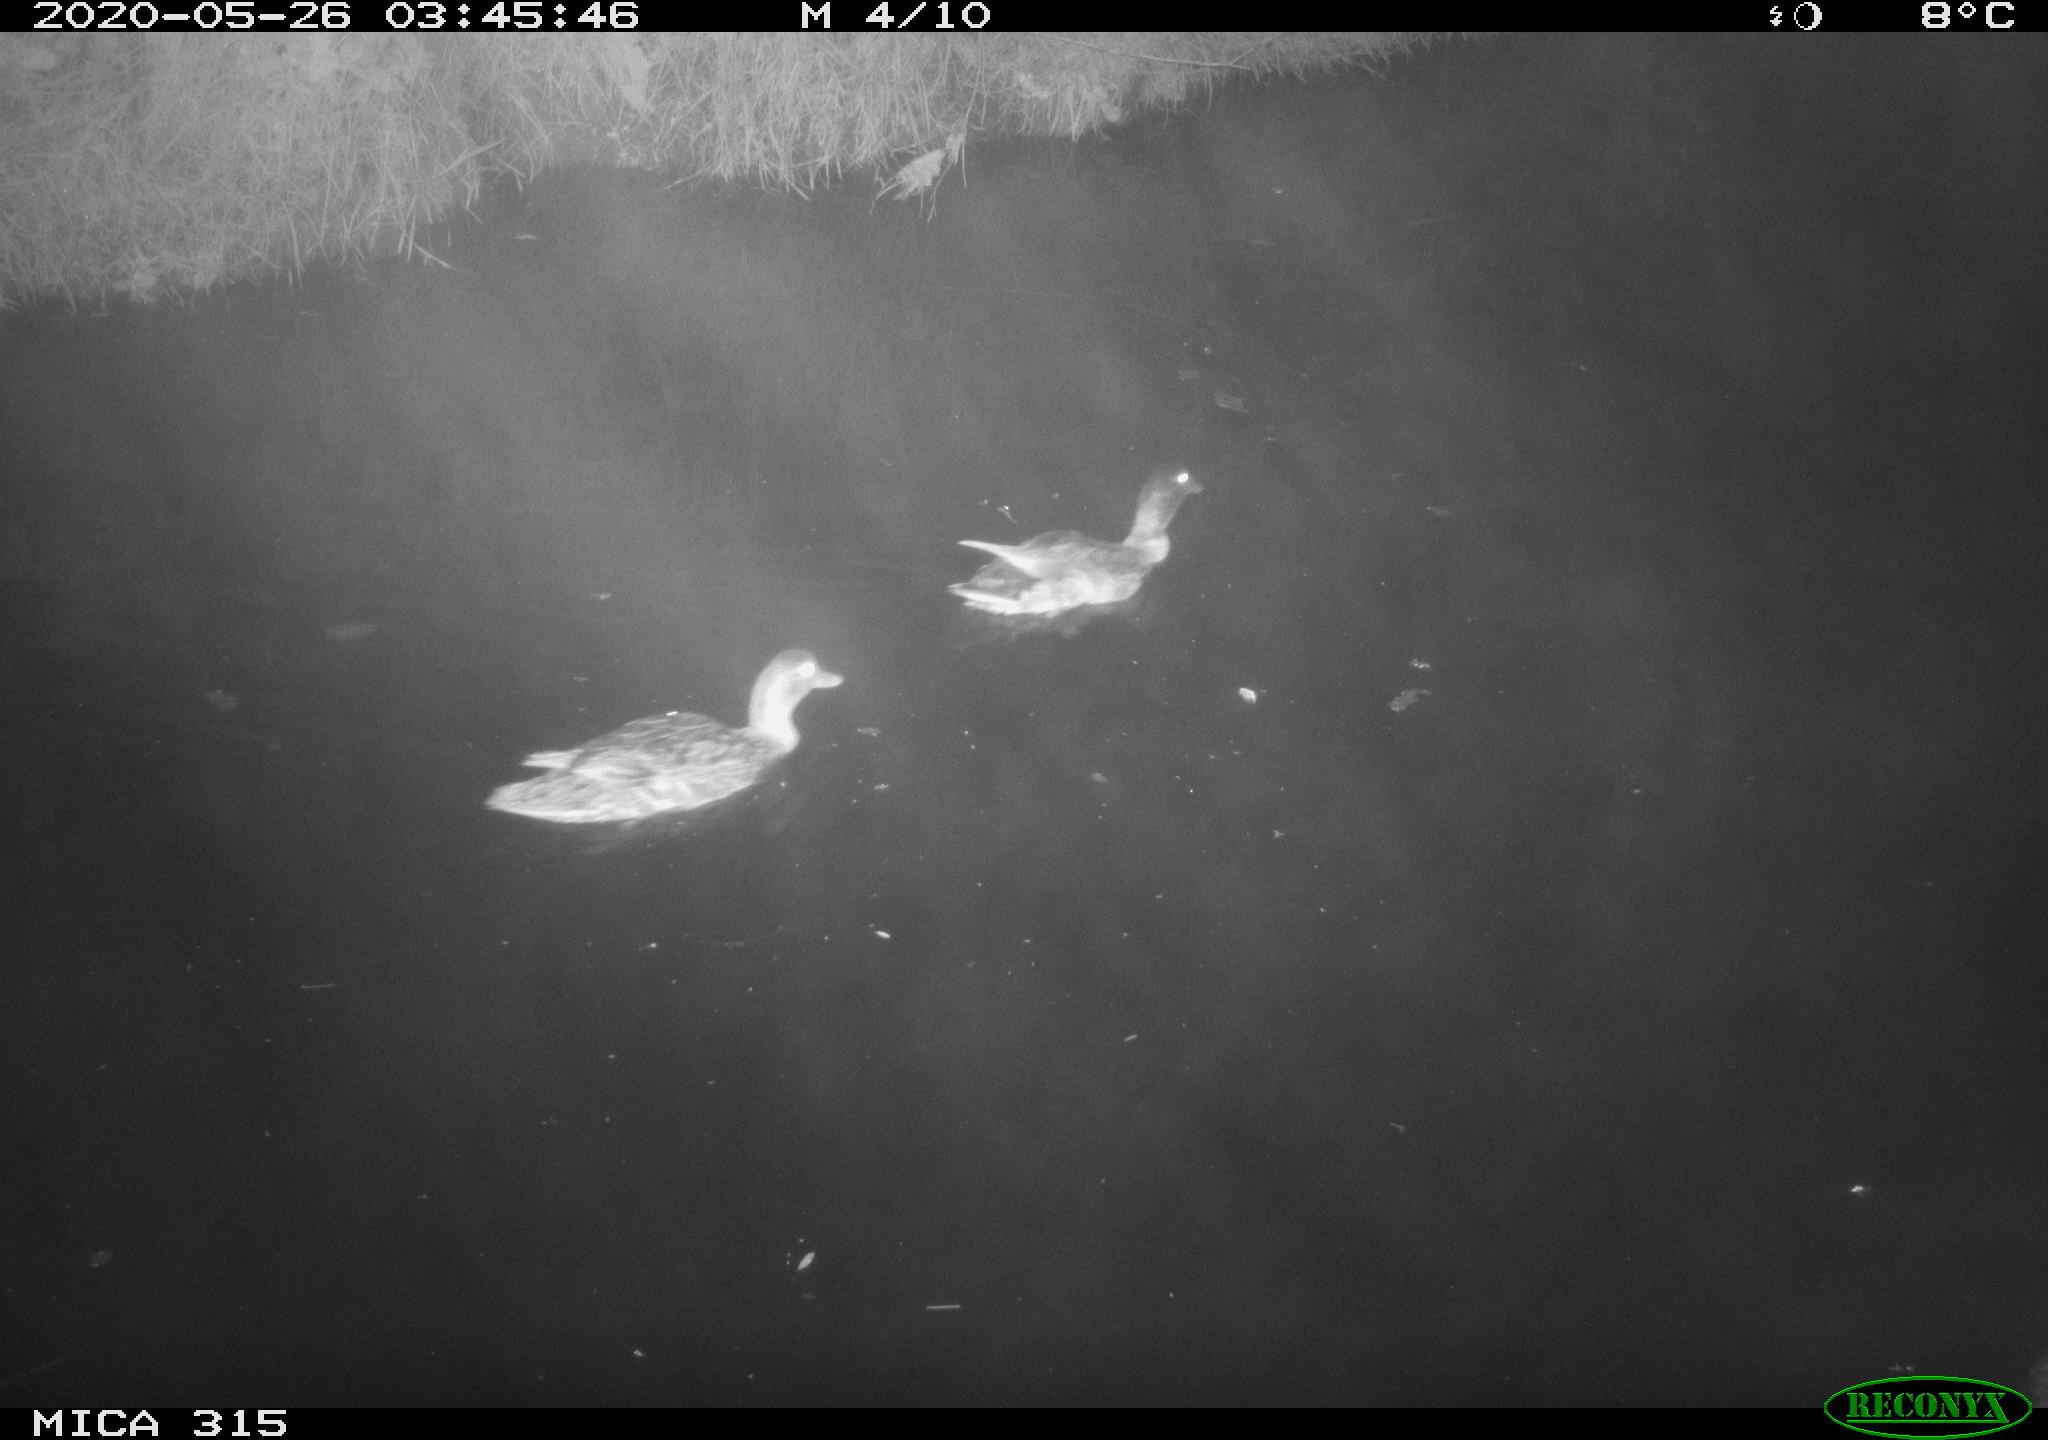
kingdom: Animalia
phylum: Chordata
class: Aves
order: Anseriformes
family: Anatidae
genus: Anas
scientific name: Anas platyrhynchos
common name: Mallard
